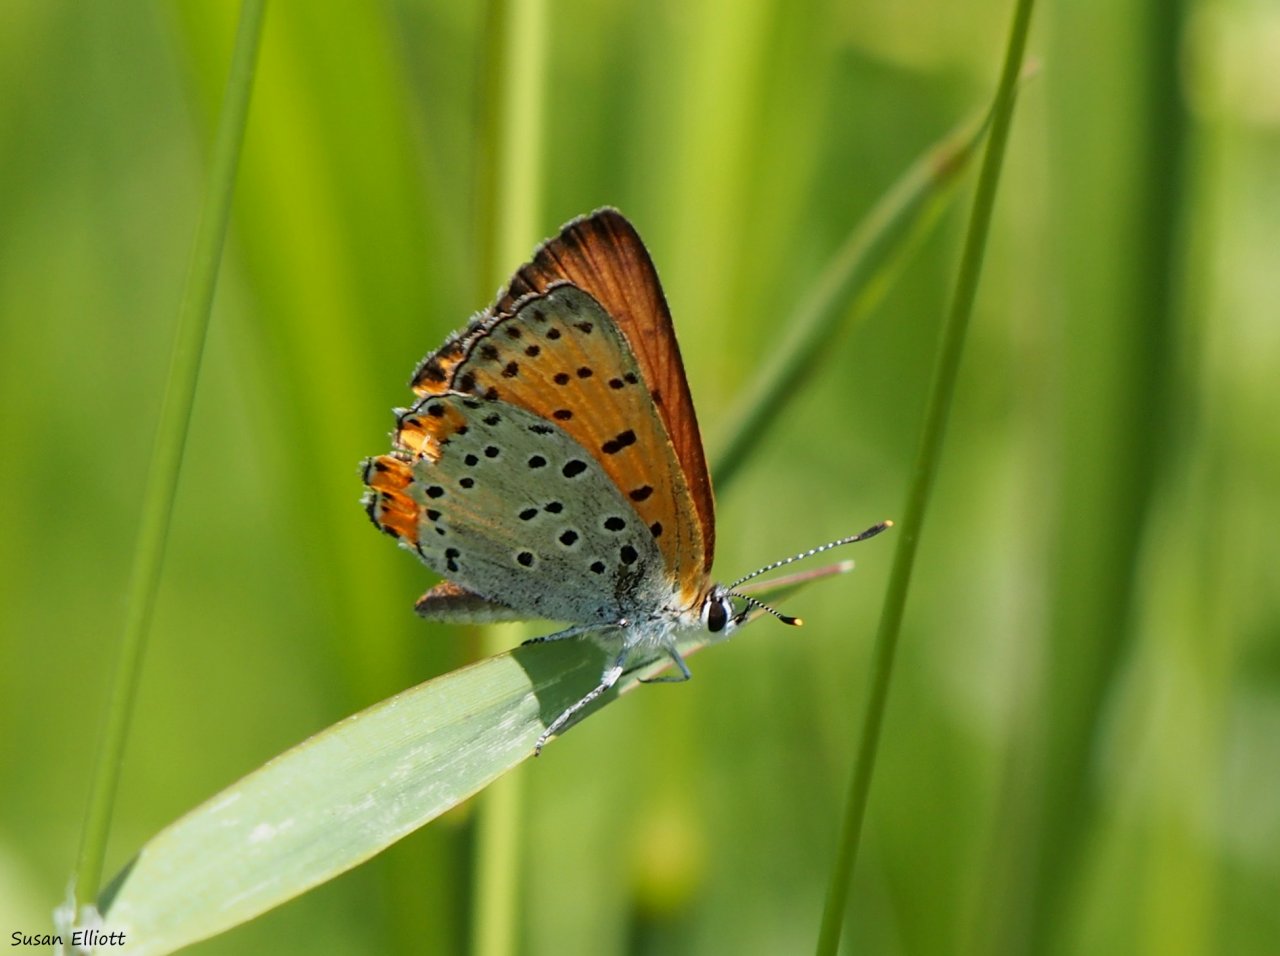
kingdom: Animalia
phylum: Arthropoda
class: Insecta
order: Lepidoptera
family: Sesiidae
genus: Sesia
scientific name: Sesia Lycaena hyllus
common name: Bronze Copper
